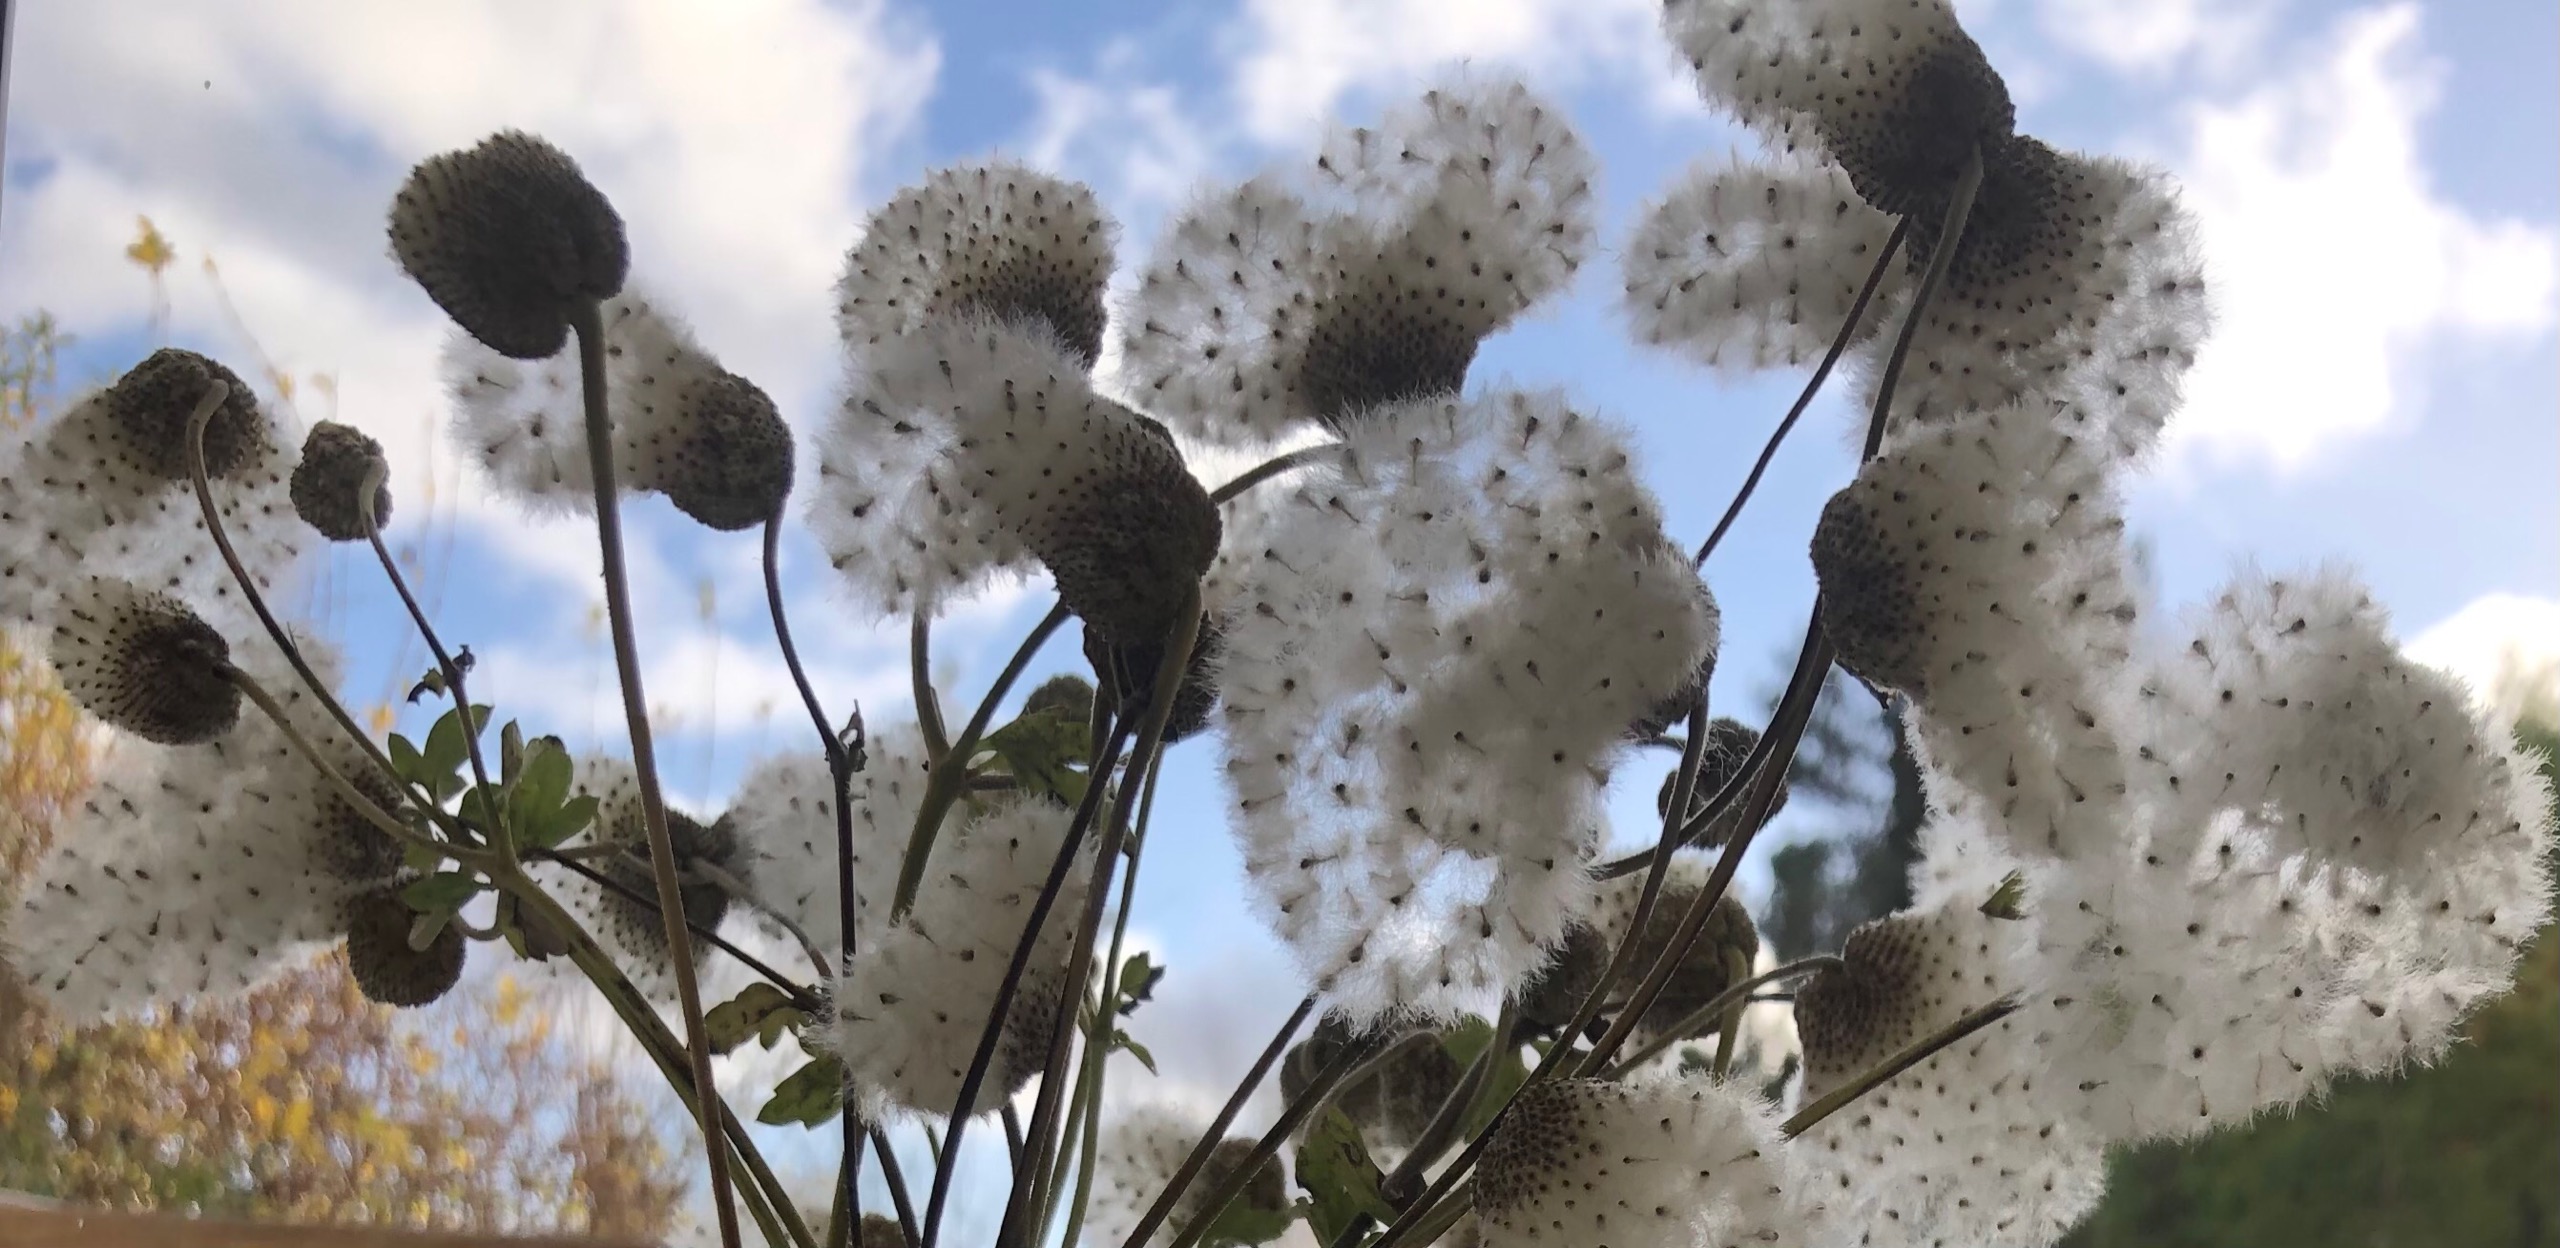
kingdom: Plantae
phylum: Tracheophyta
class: Magnoliopsida
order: Ranunculales
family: Ranunculaceae
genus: Eriocapitella
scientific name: Eriocapitella hupehensis
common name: Høst-anemone
